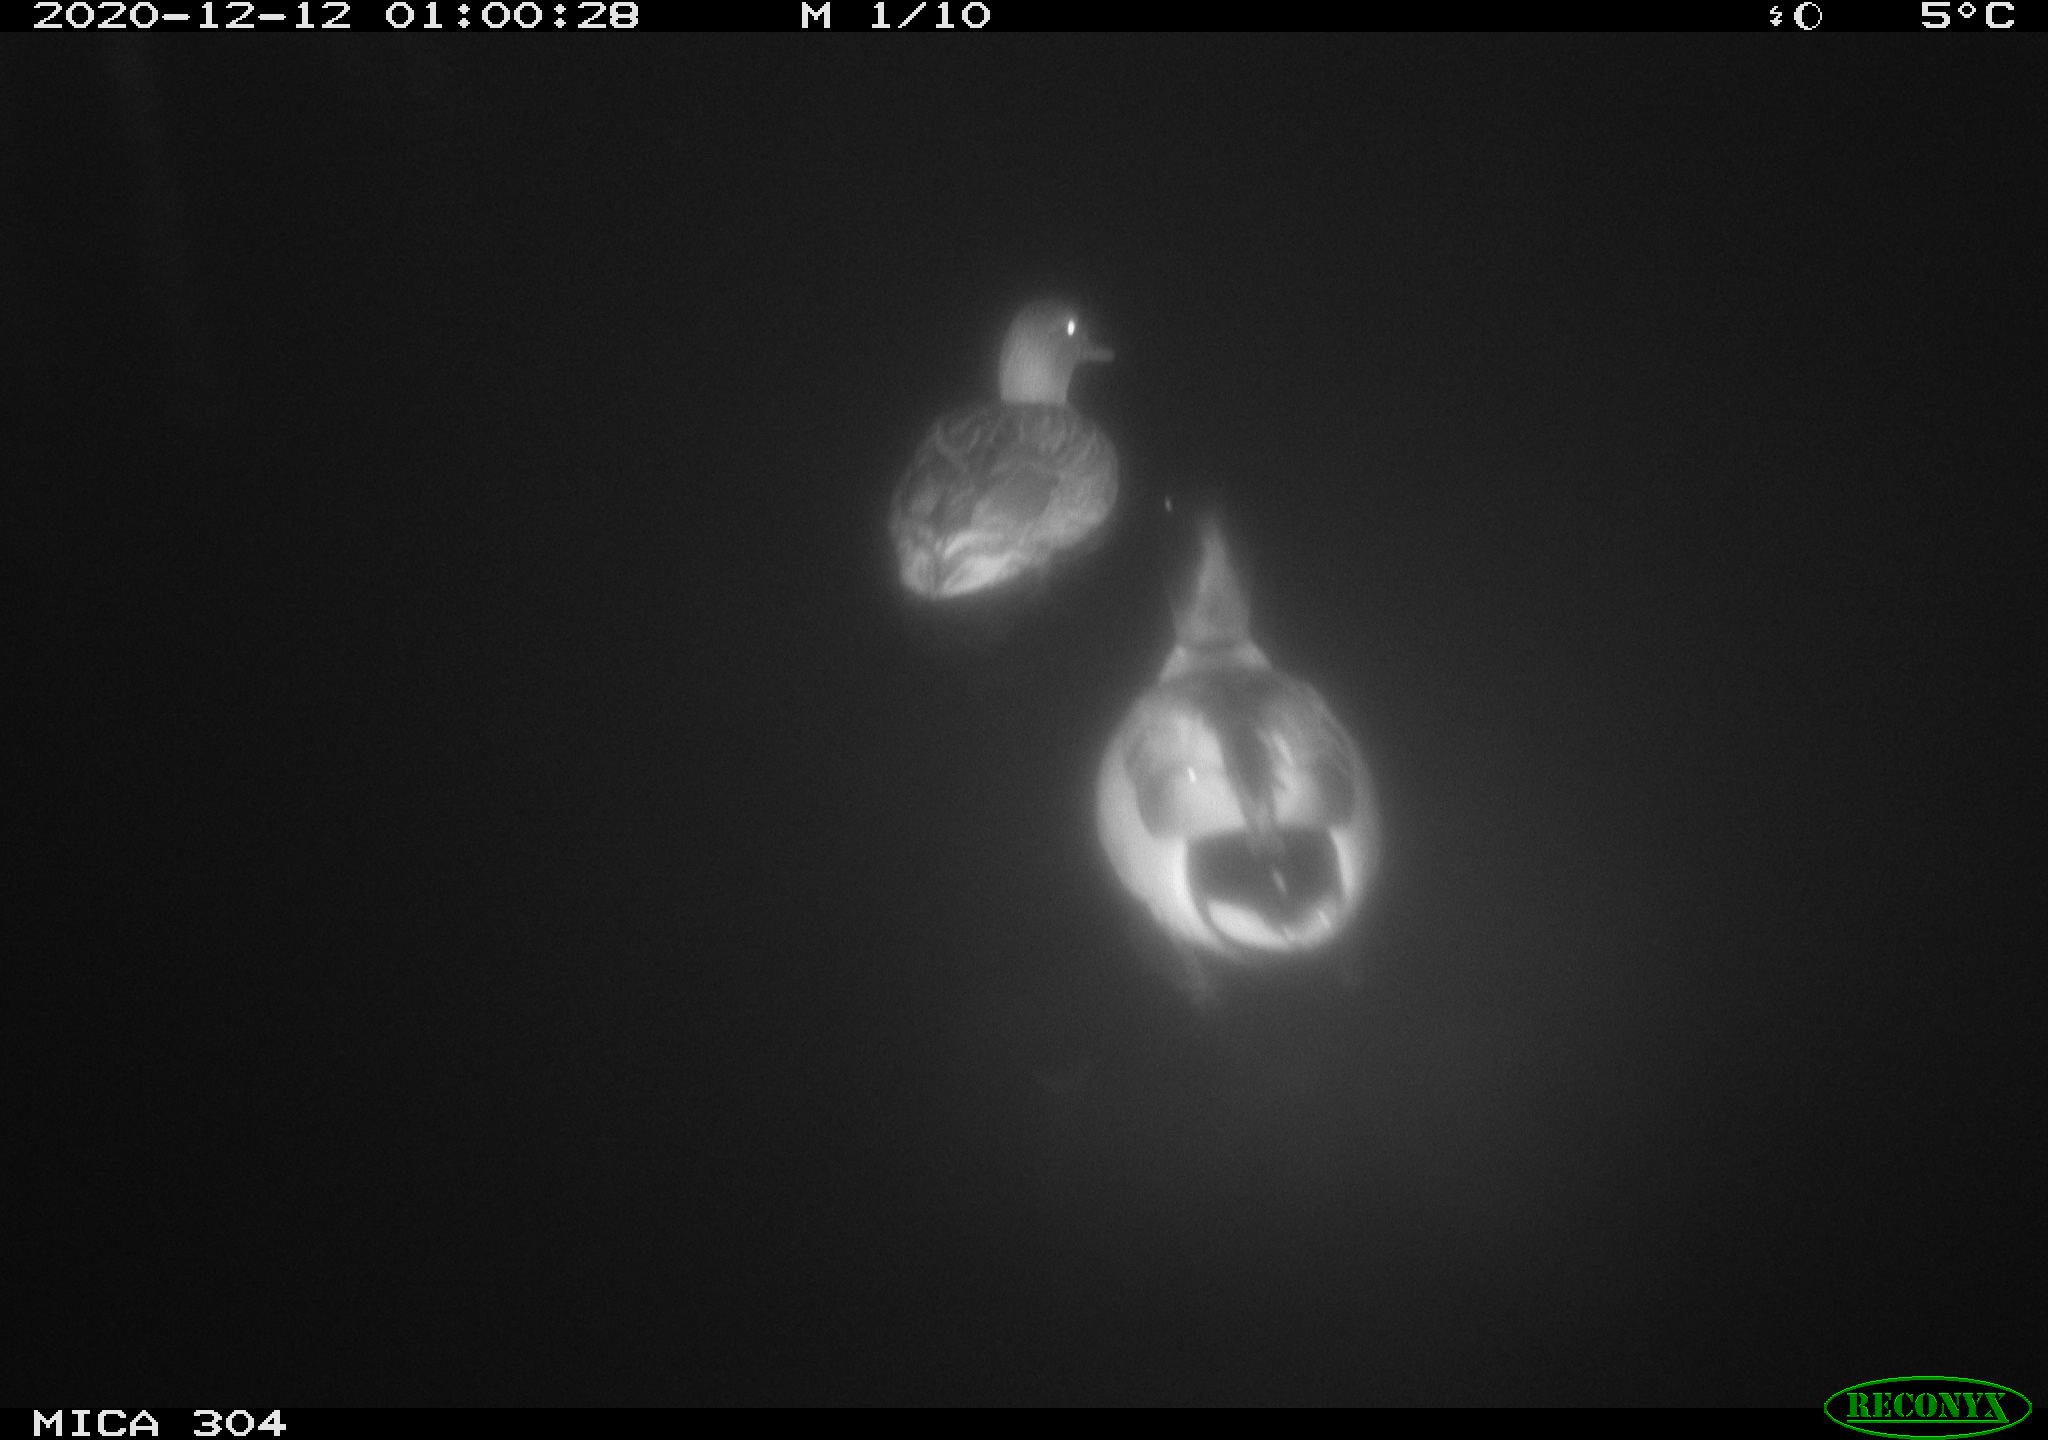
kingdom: Animalia
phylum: Chordata
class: Aves
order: Anseriformes
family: Anatidae
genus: Anas
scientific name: Anas platyrhynchos
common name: Mallard
